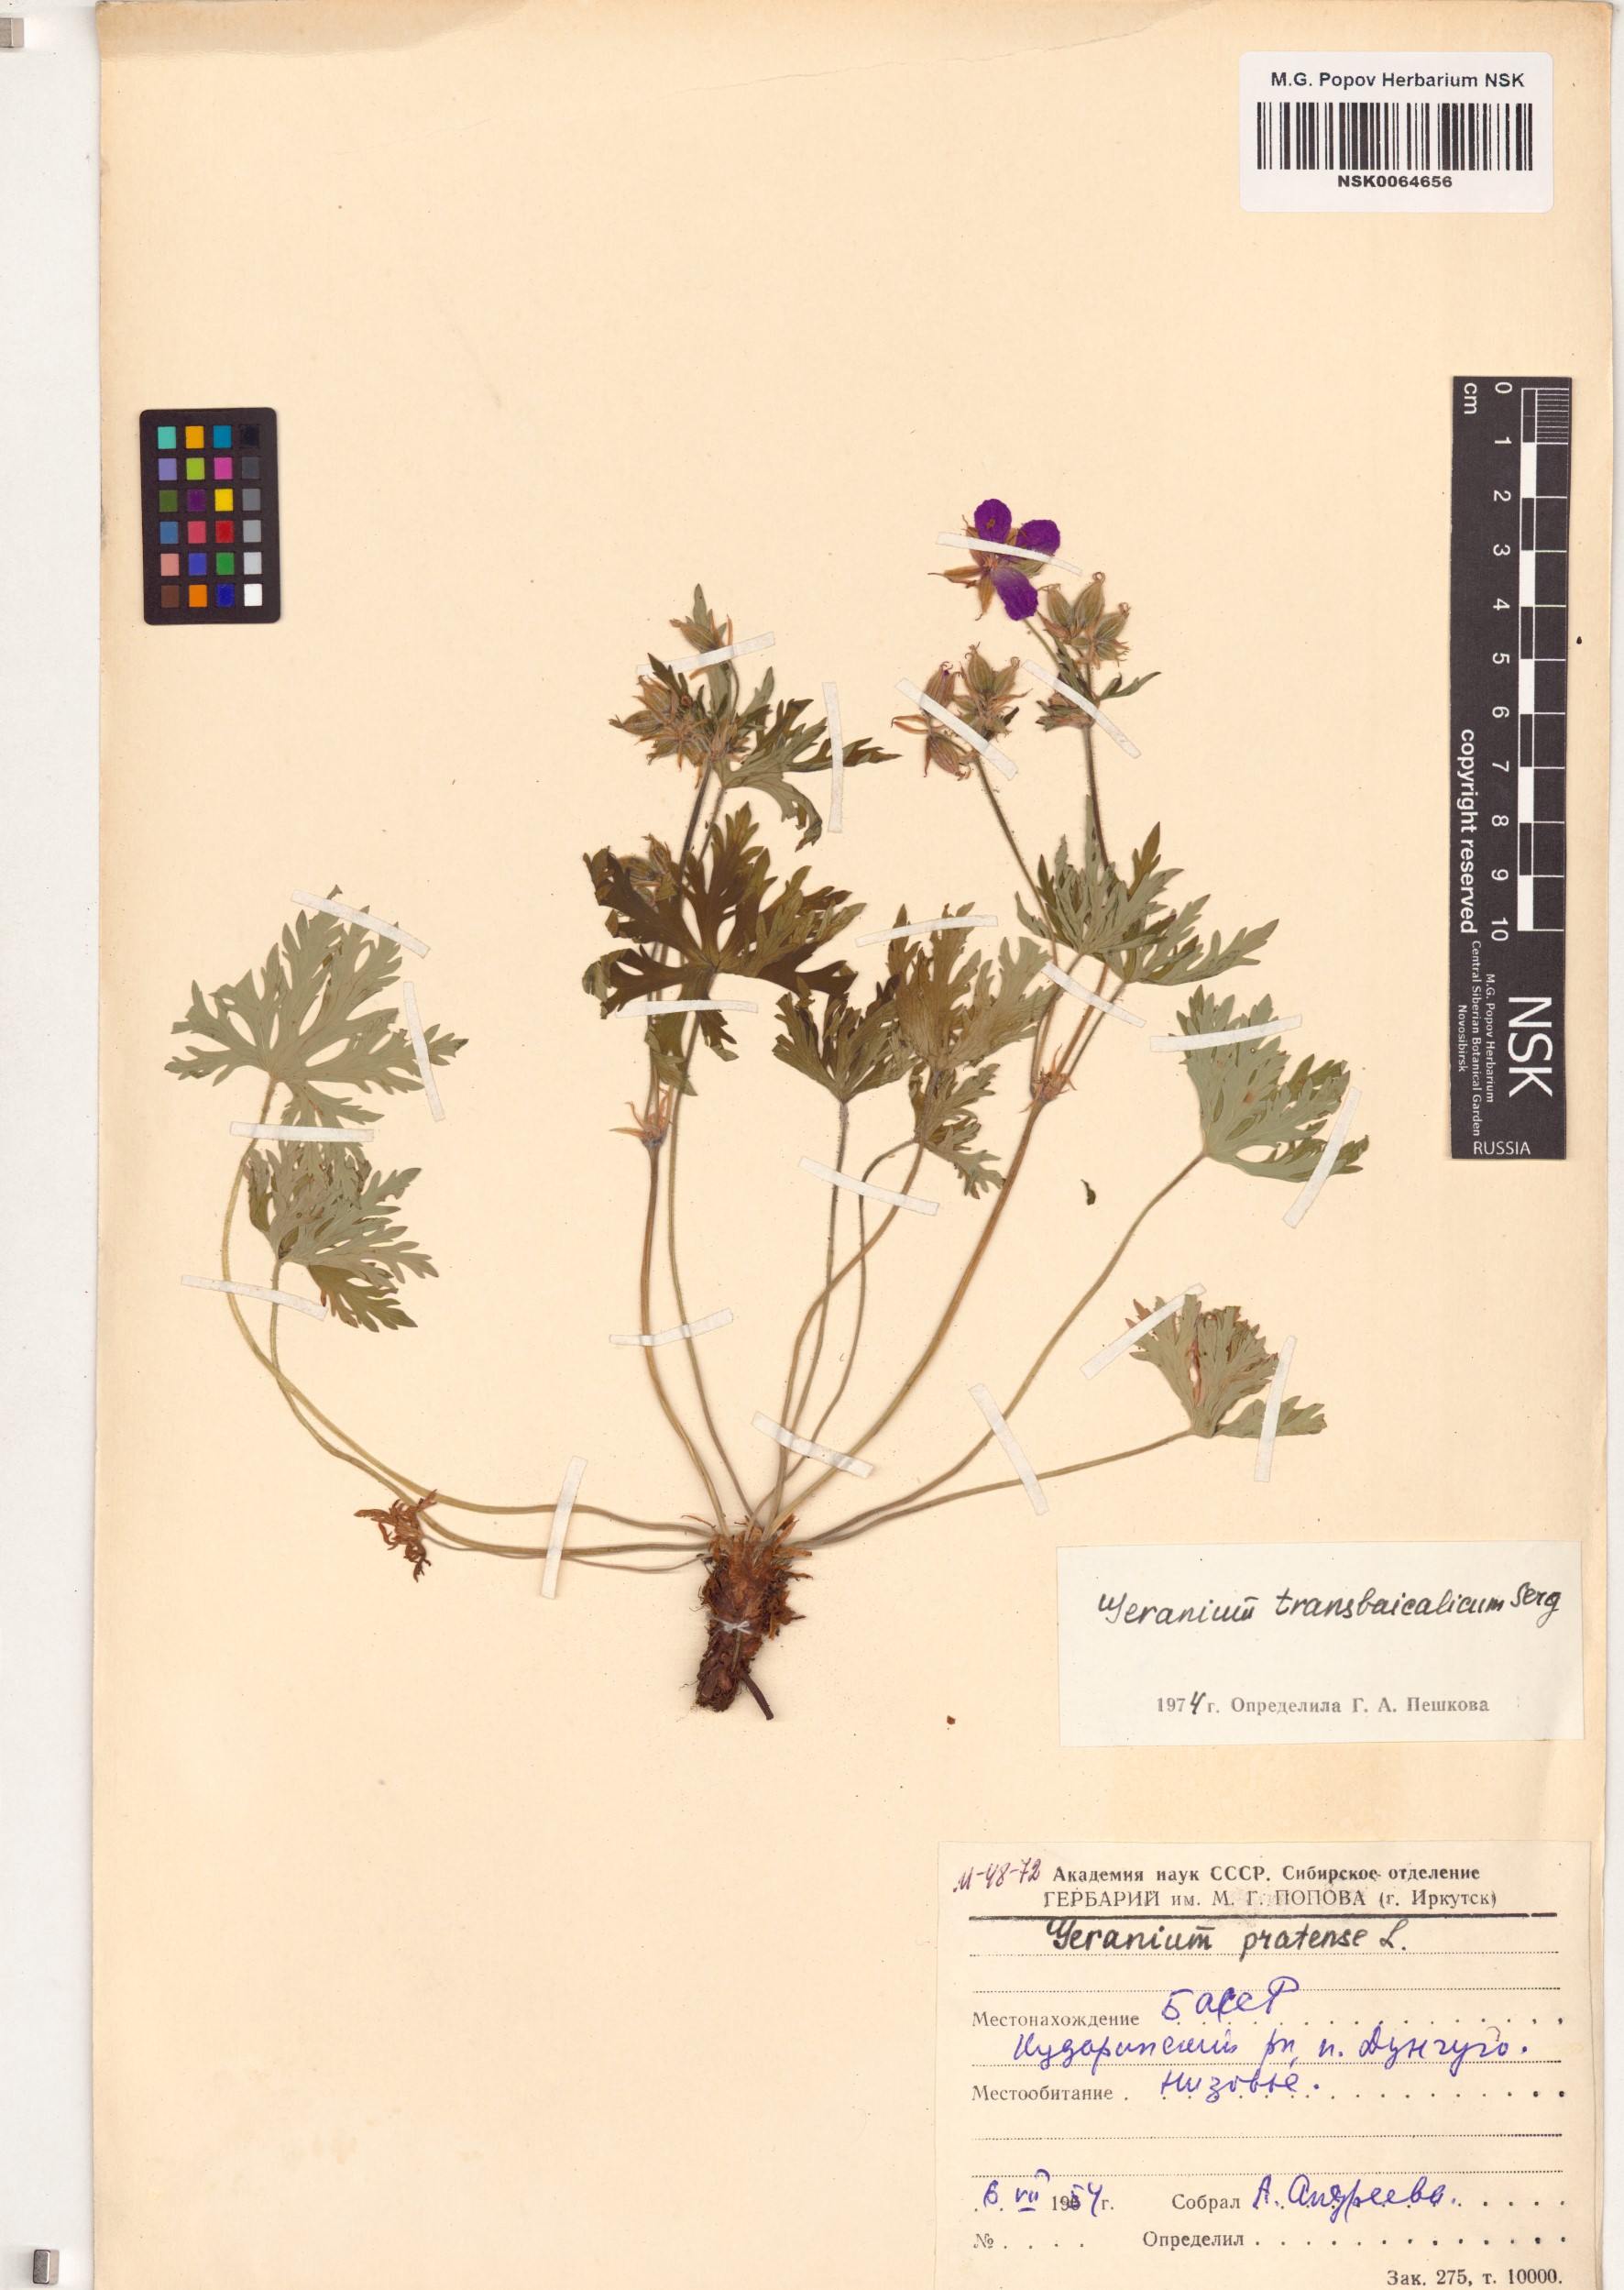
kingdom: Plantae
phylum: Tracheophyta
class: Magnoliopsida
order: Geraniales
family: Geraniaceae
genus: Geranium
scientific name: Geranium pratense
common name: Meadow crane's-bill
